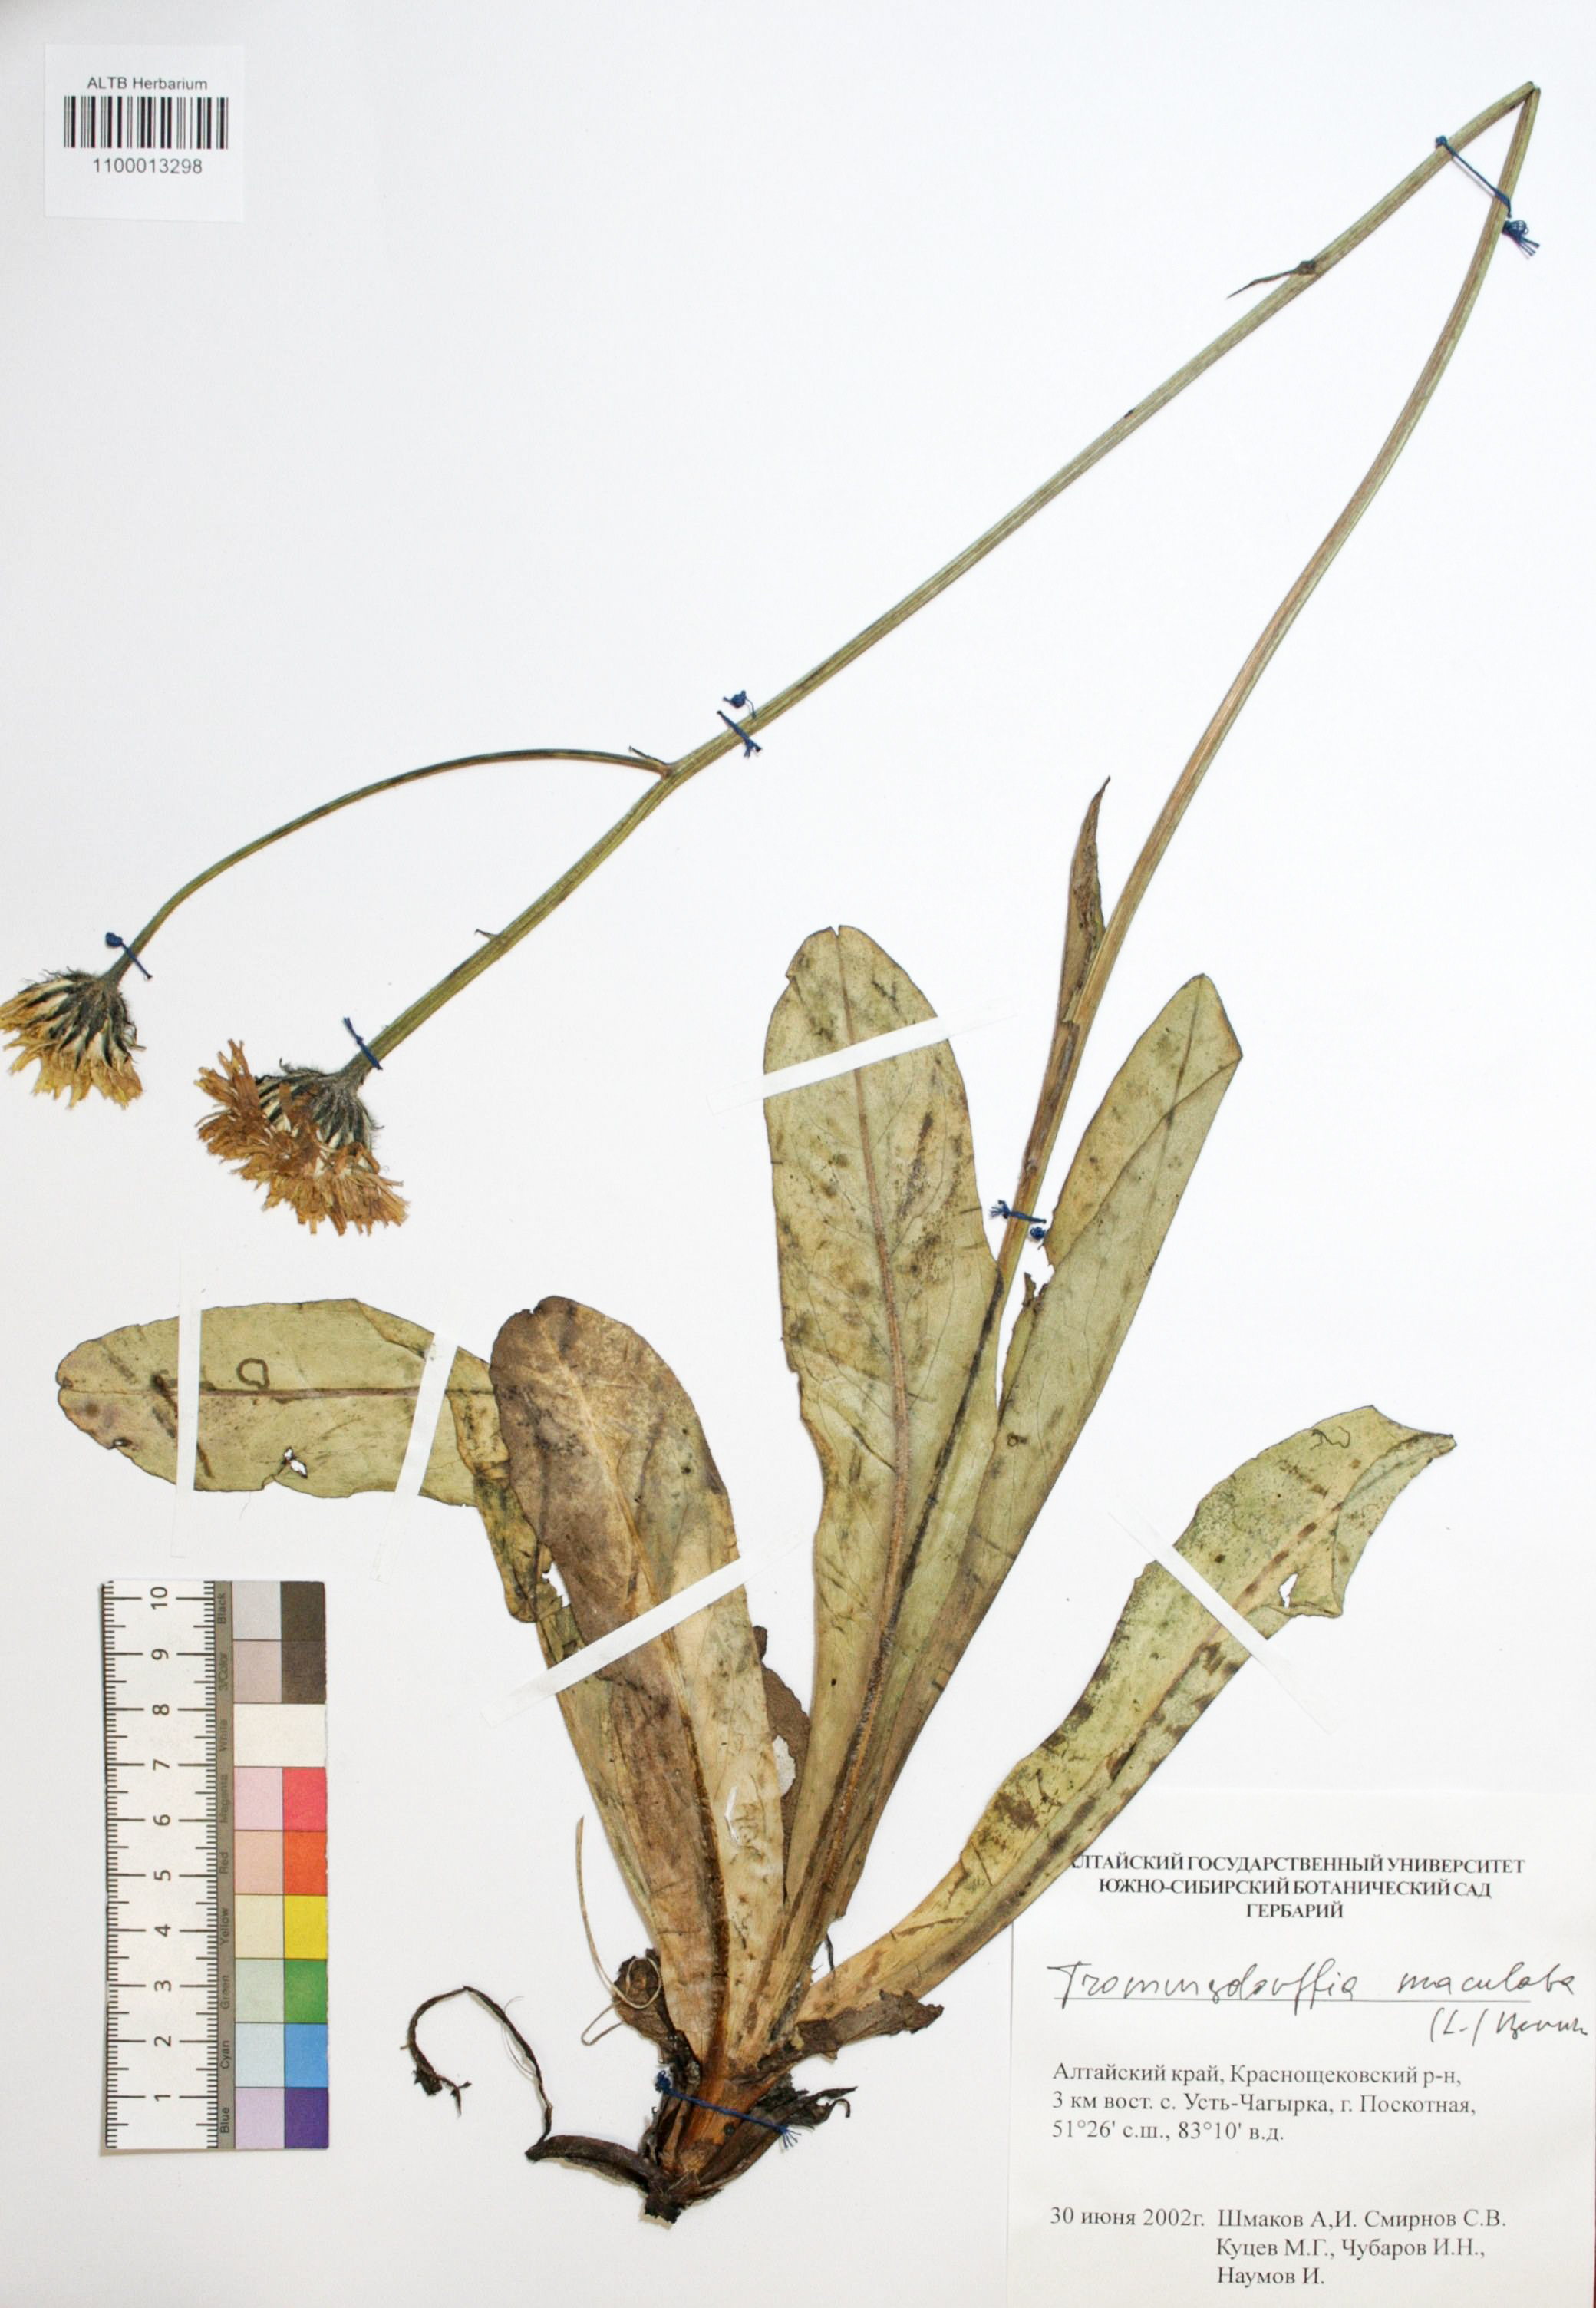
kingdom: Plantae
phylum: Tracheophyta
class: Magnoliopsida
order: Asterales
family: Asteraceae
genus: Trommsdorffia
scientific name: Trommsdorffia maculata
